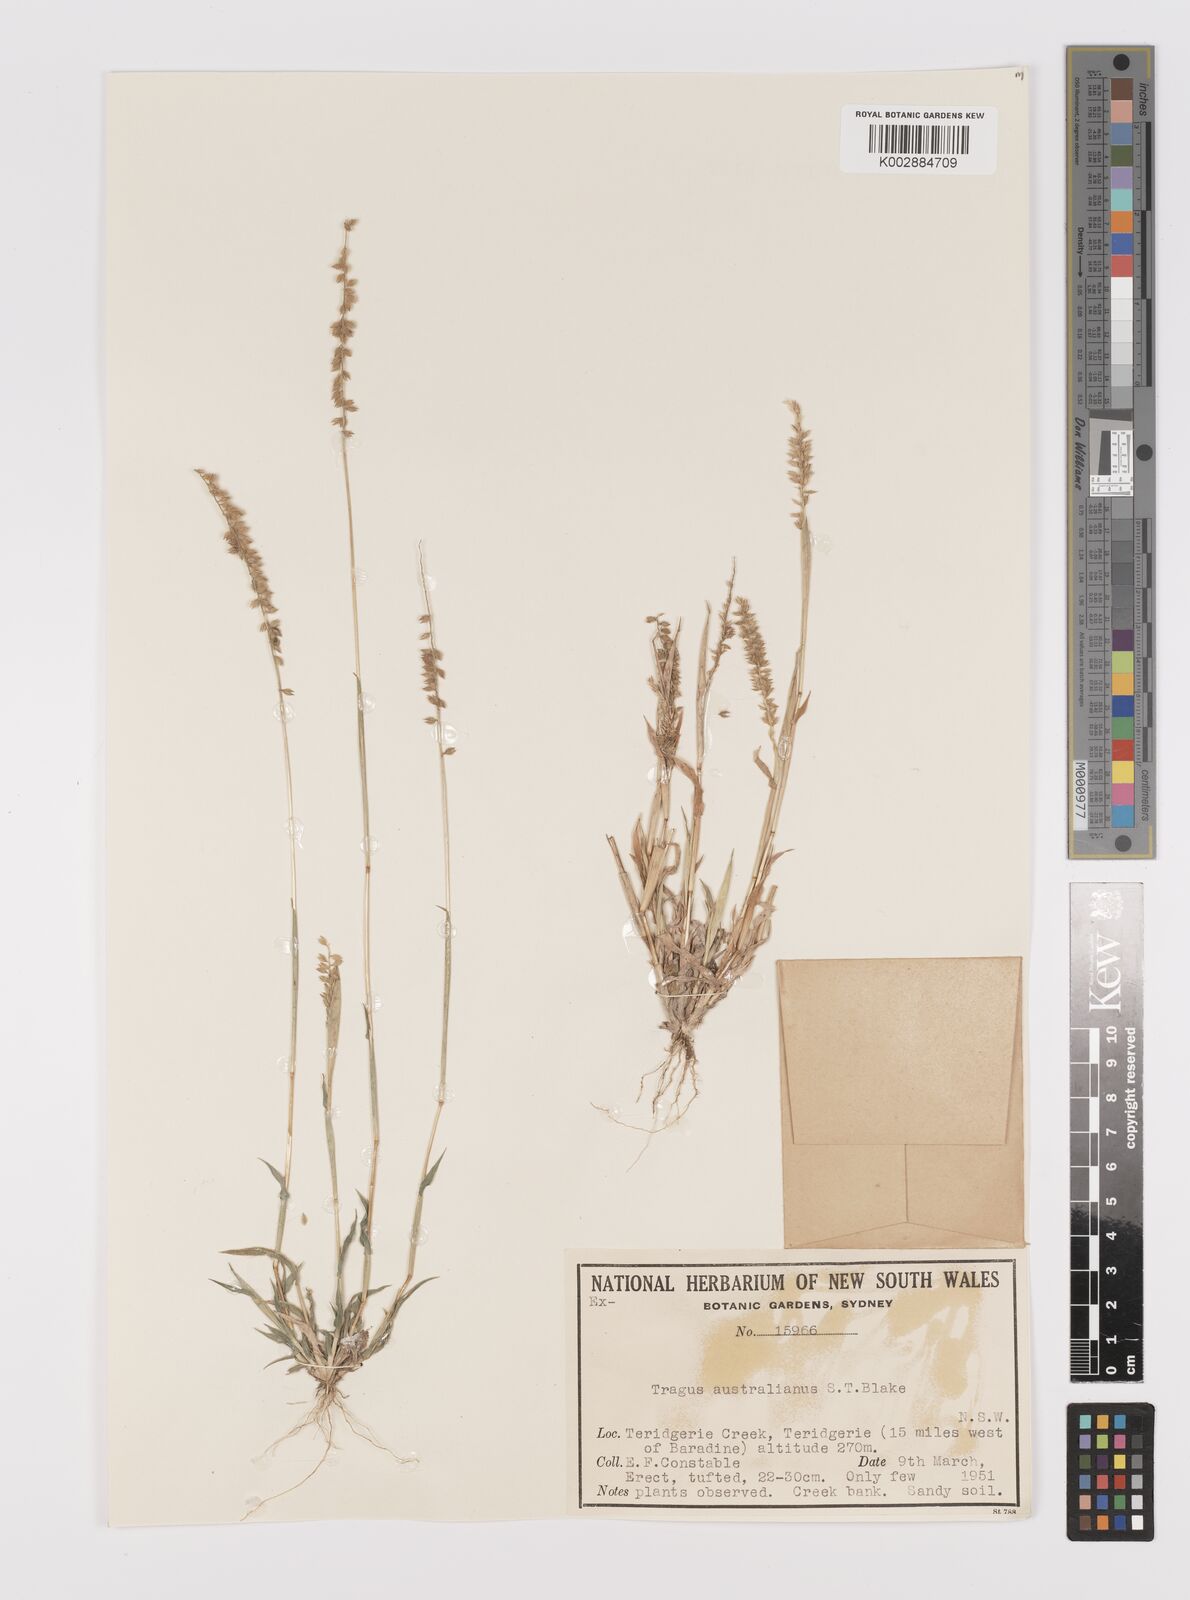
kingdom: Plantae
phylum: Tracheophyta
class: Liliopsida
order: Poales
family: Poaceae
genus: Tragus
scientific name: Tragus australianus
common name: Australian bur-grass
